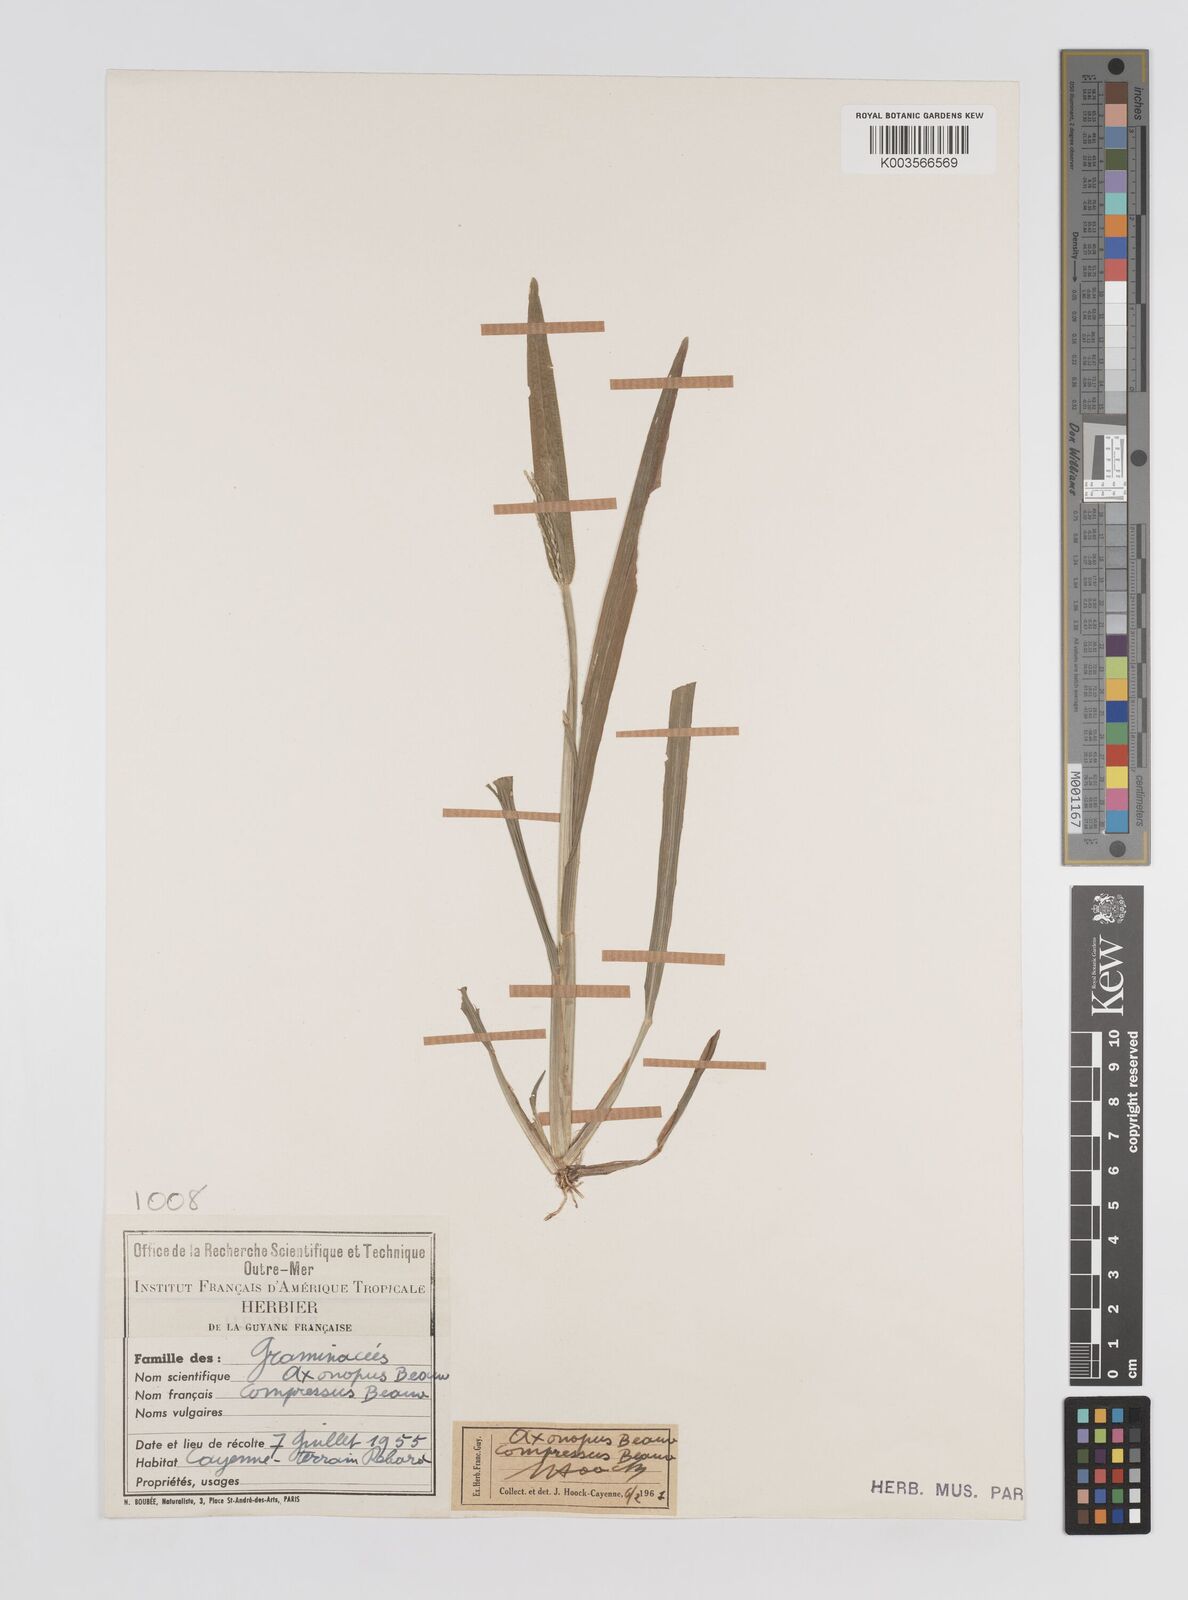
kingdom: Plantae
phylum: Tracheophyta
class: Liliopsida
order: Poales
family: Poaceae
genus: Axonopus
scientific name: Axonopus compressus
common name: American carpet grass
